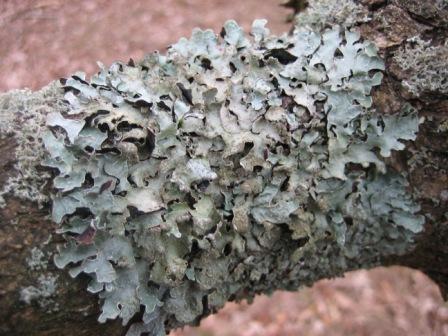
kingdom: Fungi
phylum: Ascomycota
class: Lecanoromycetes
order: Lecanorales
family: Parmeliaceae
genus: Parmelia
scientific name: Parmelia sulcata
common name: rynket skållav
